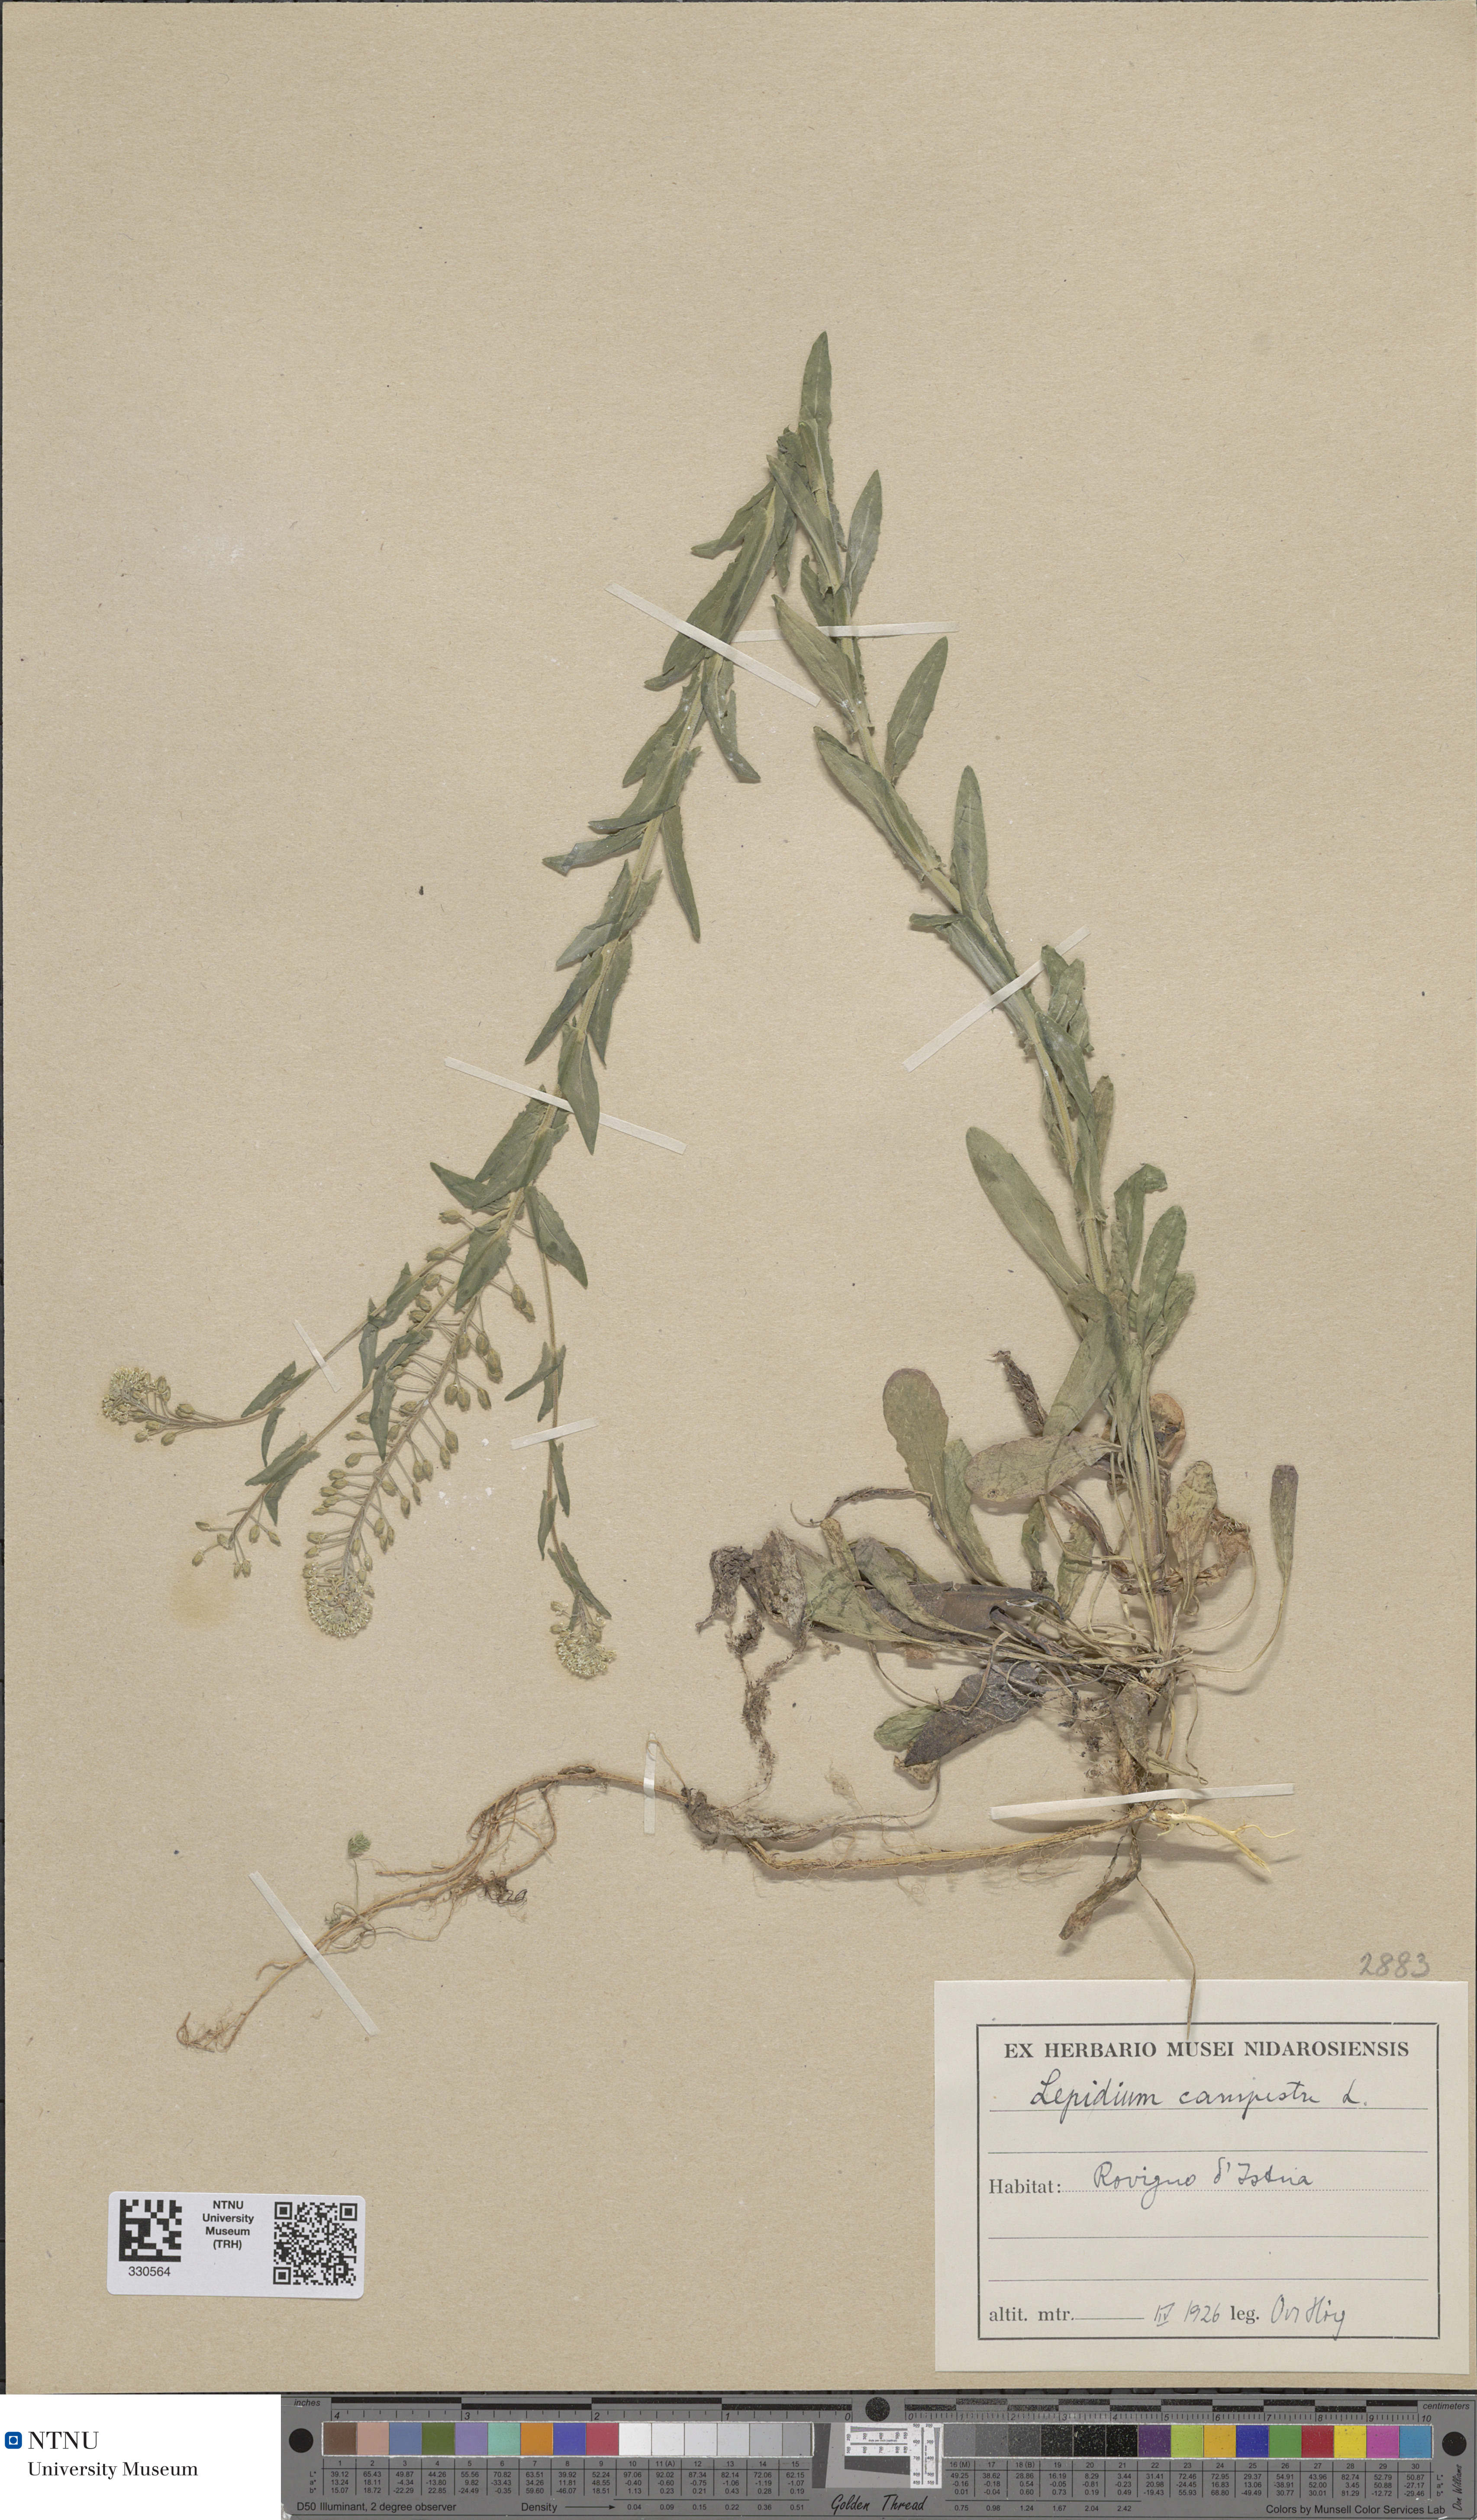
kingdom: Plantae
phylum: Tracheophyta
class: Magnoliopsida
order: Brassicales
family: Brassicaceae
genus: Lepidium
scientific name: Lepidium campestre
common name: Field pepperwort
